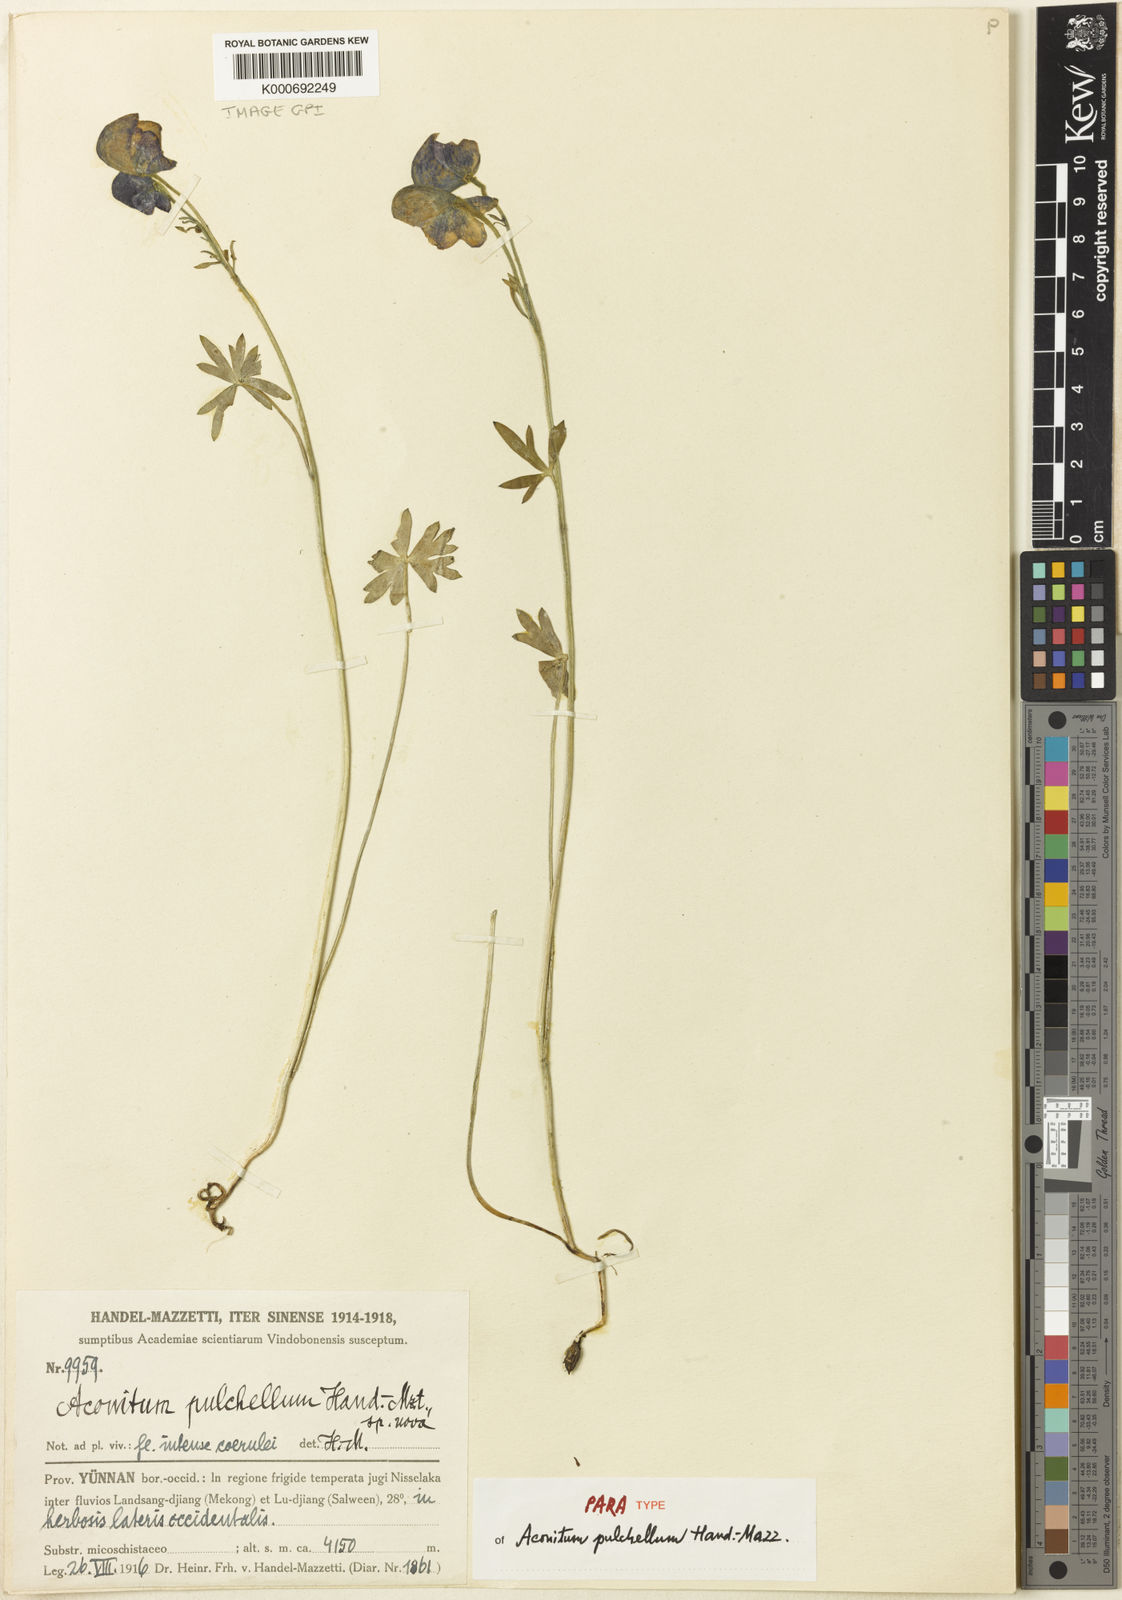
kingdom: Plantae
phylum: Tracheophyta
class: Magnoliopsida
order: Ranunculales
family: Ranunculaceae
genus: Aconitum
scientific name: Aconitum pulchellum
